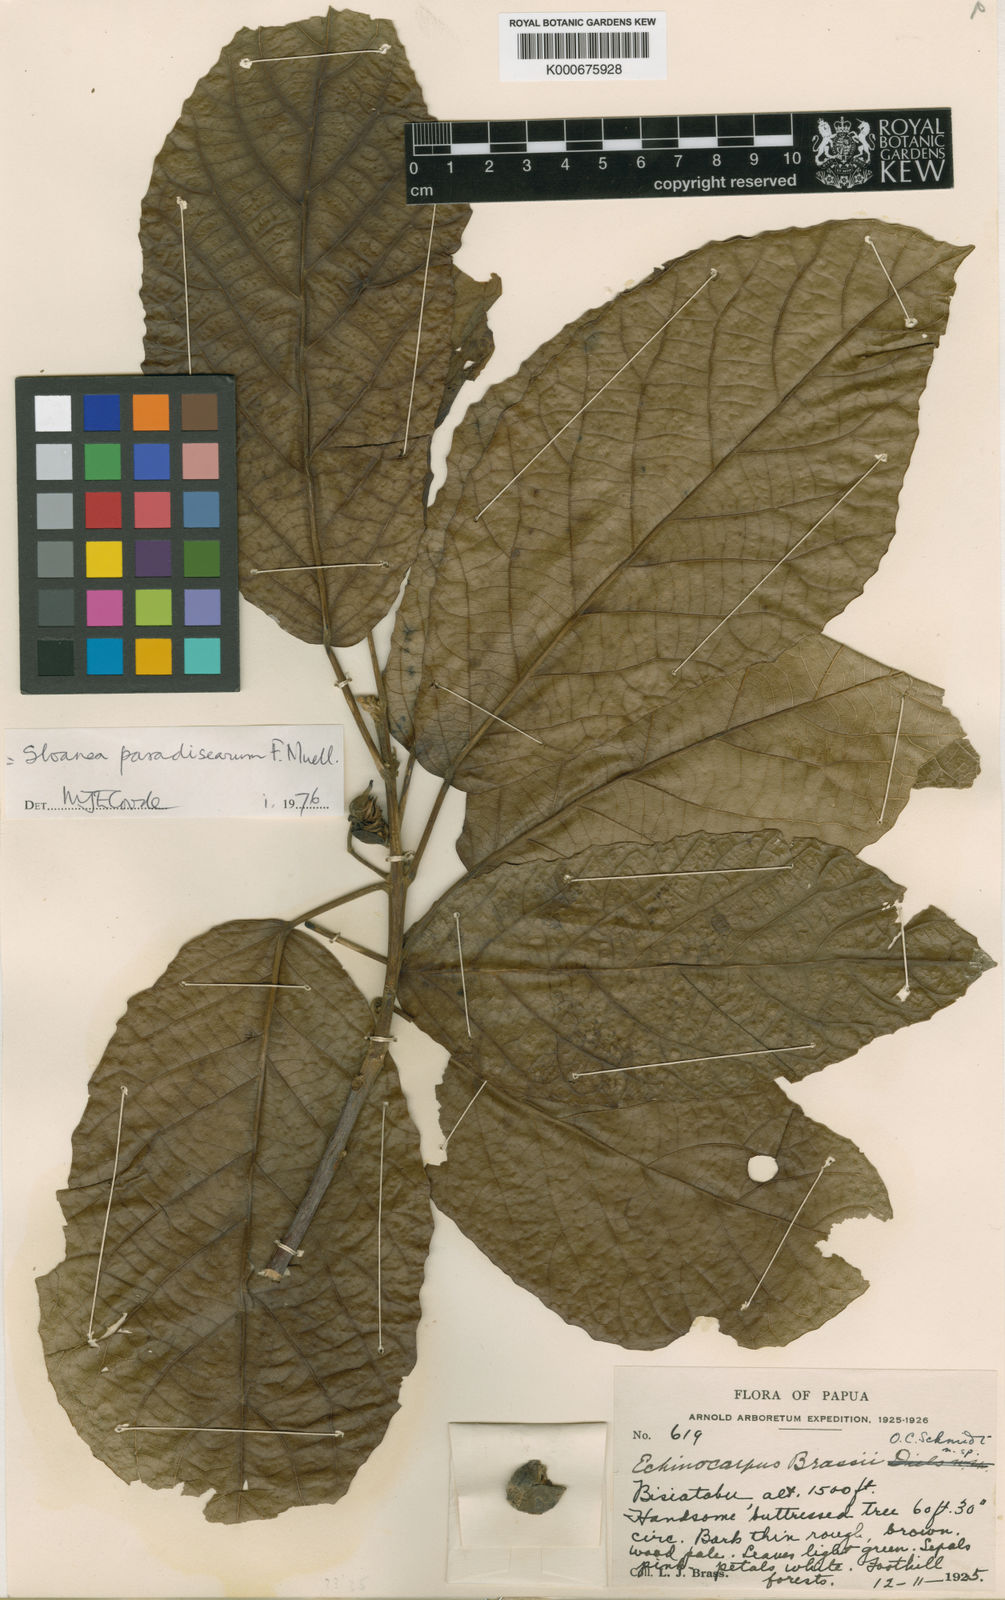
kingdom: Plantae
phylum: Tracheophyta
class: Magnoliopsida
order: Oxalidales
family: Elaeocarpaceae
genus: Sloanea
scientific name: Sloanea paradisearum
